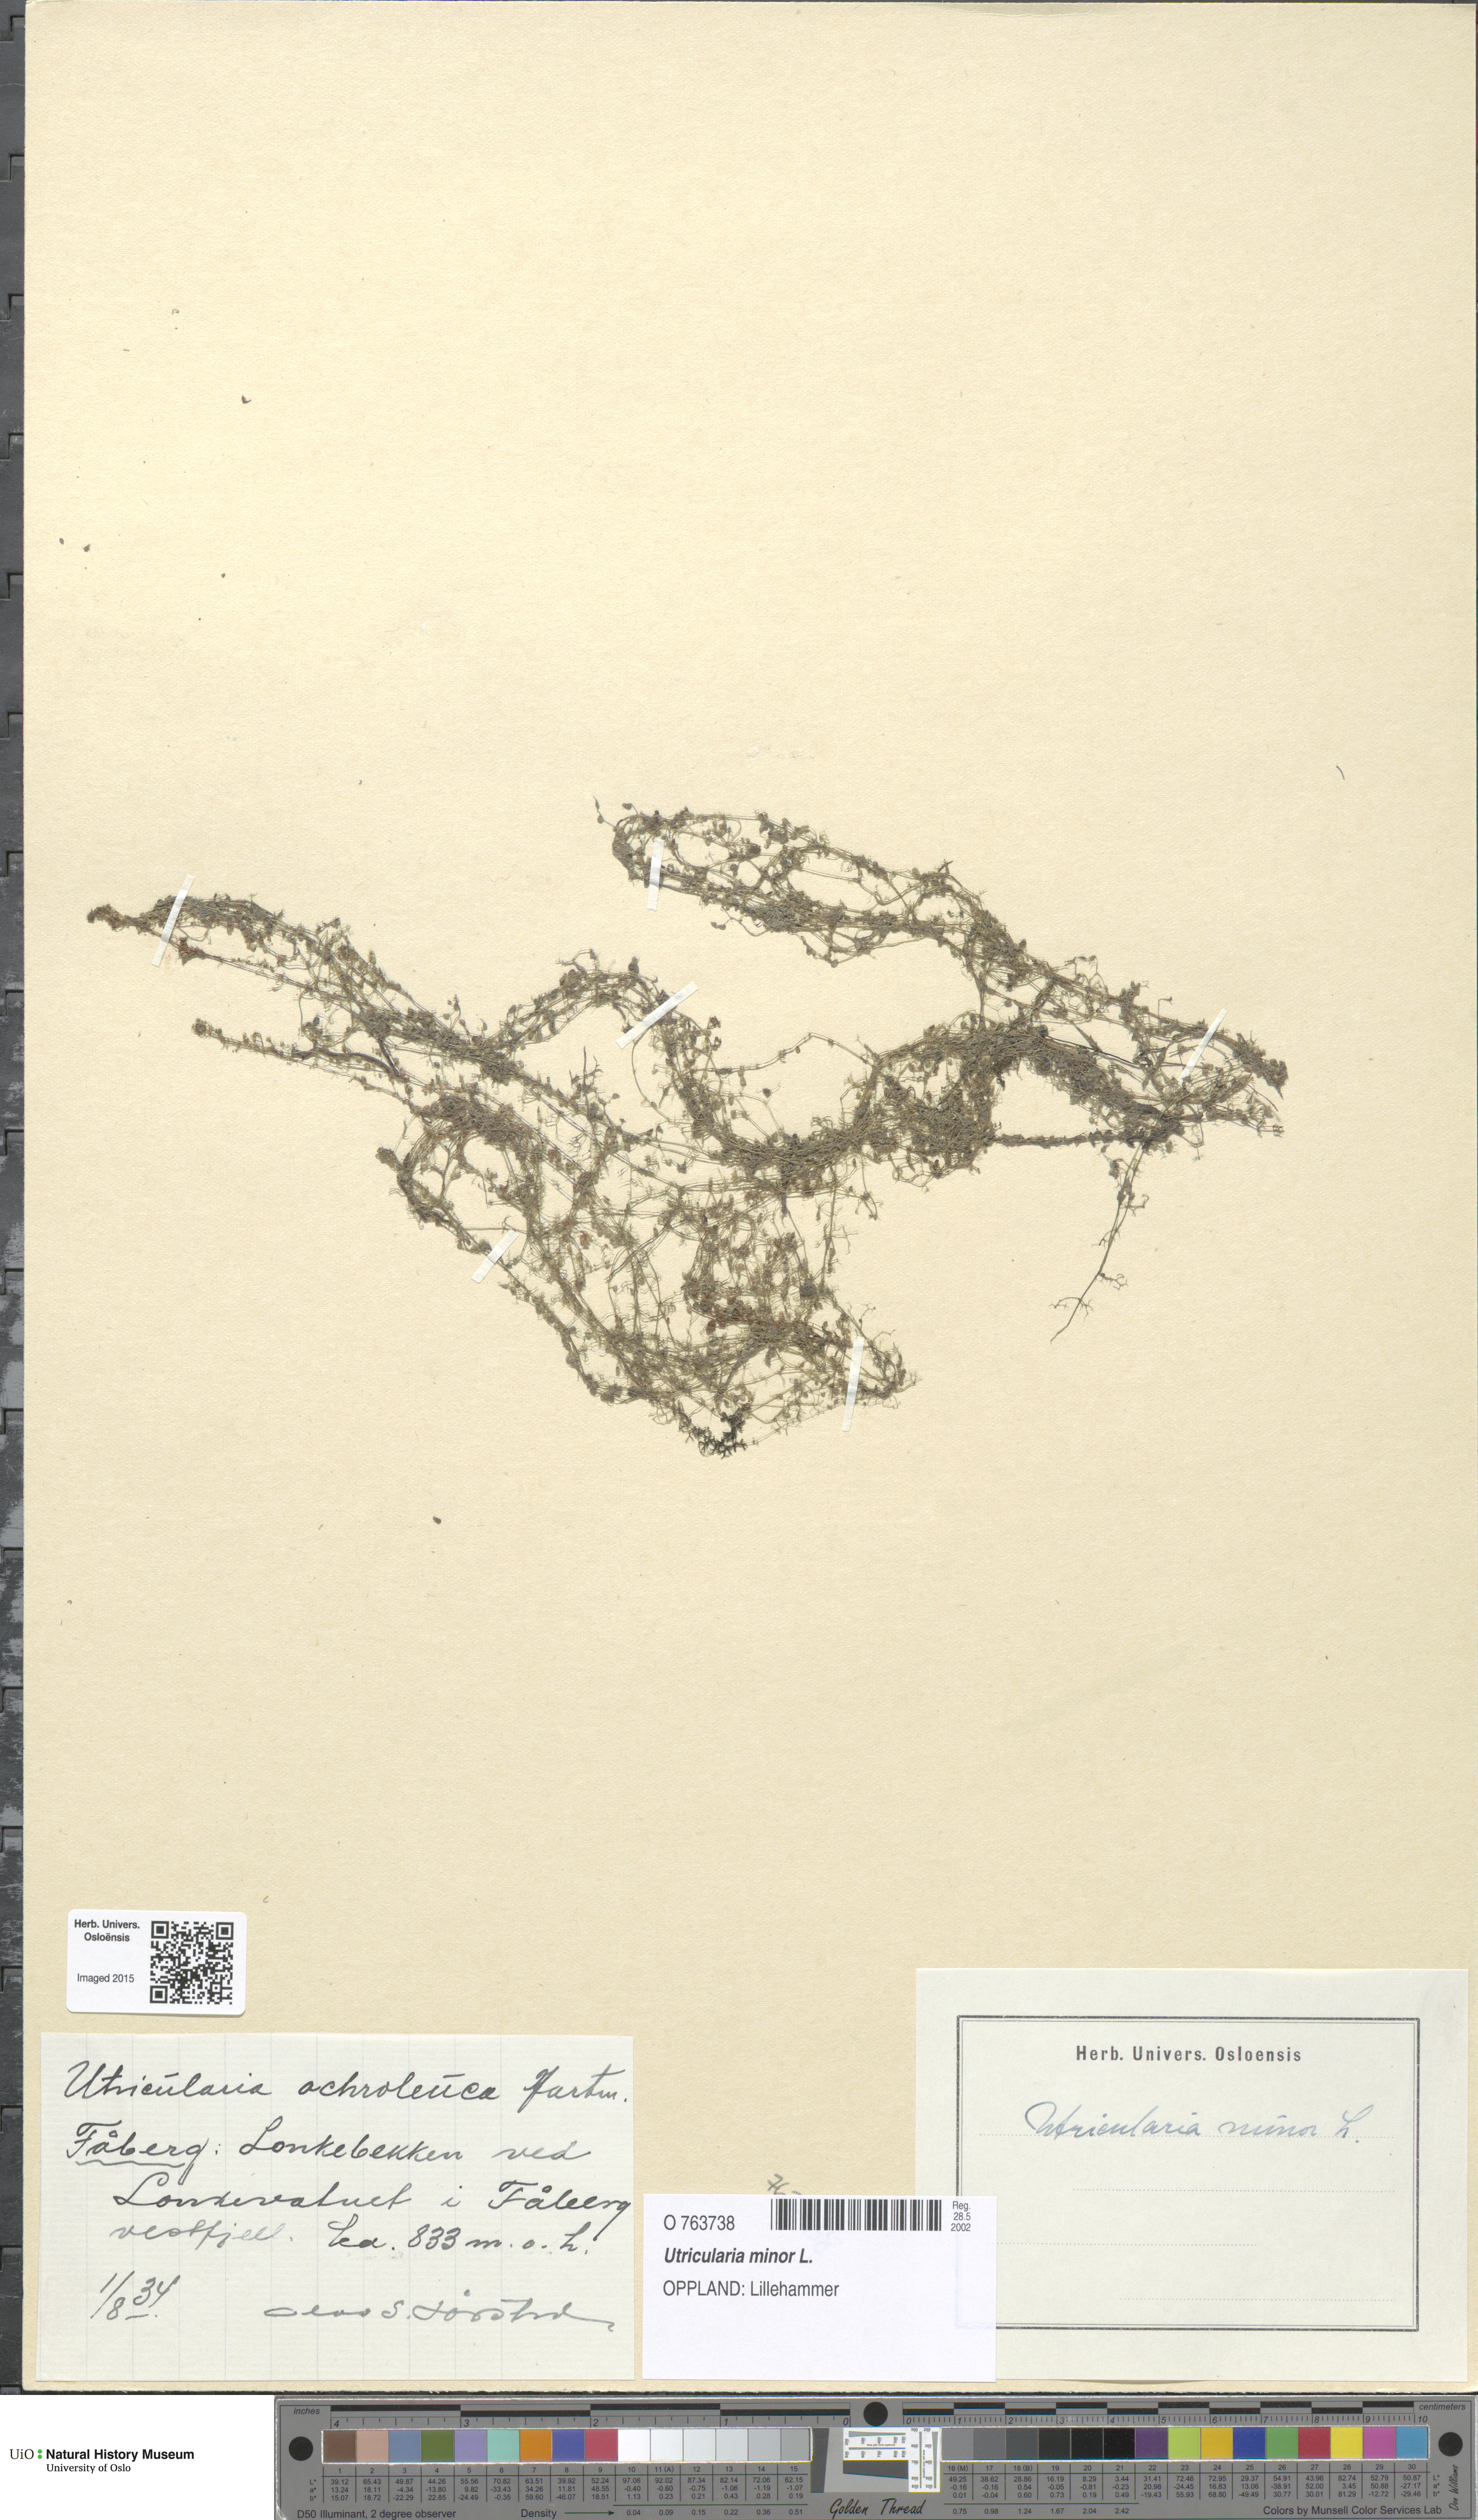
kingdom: Plantae
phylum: Tracheophyta
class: Magnoliopsida
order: Lamiales
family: Lentibulariaceae
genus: Utricularia
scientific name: Utricularia minor
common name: Lesser bladderwort
